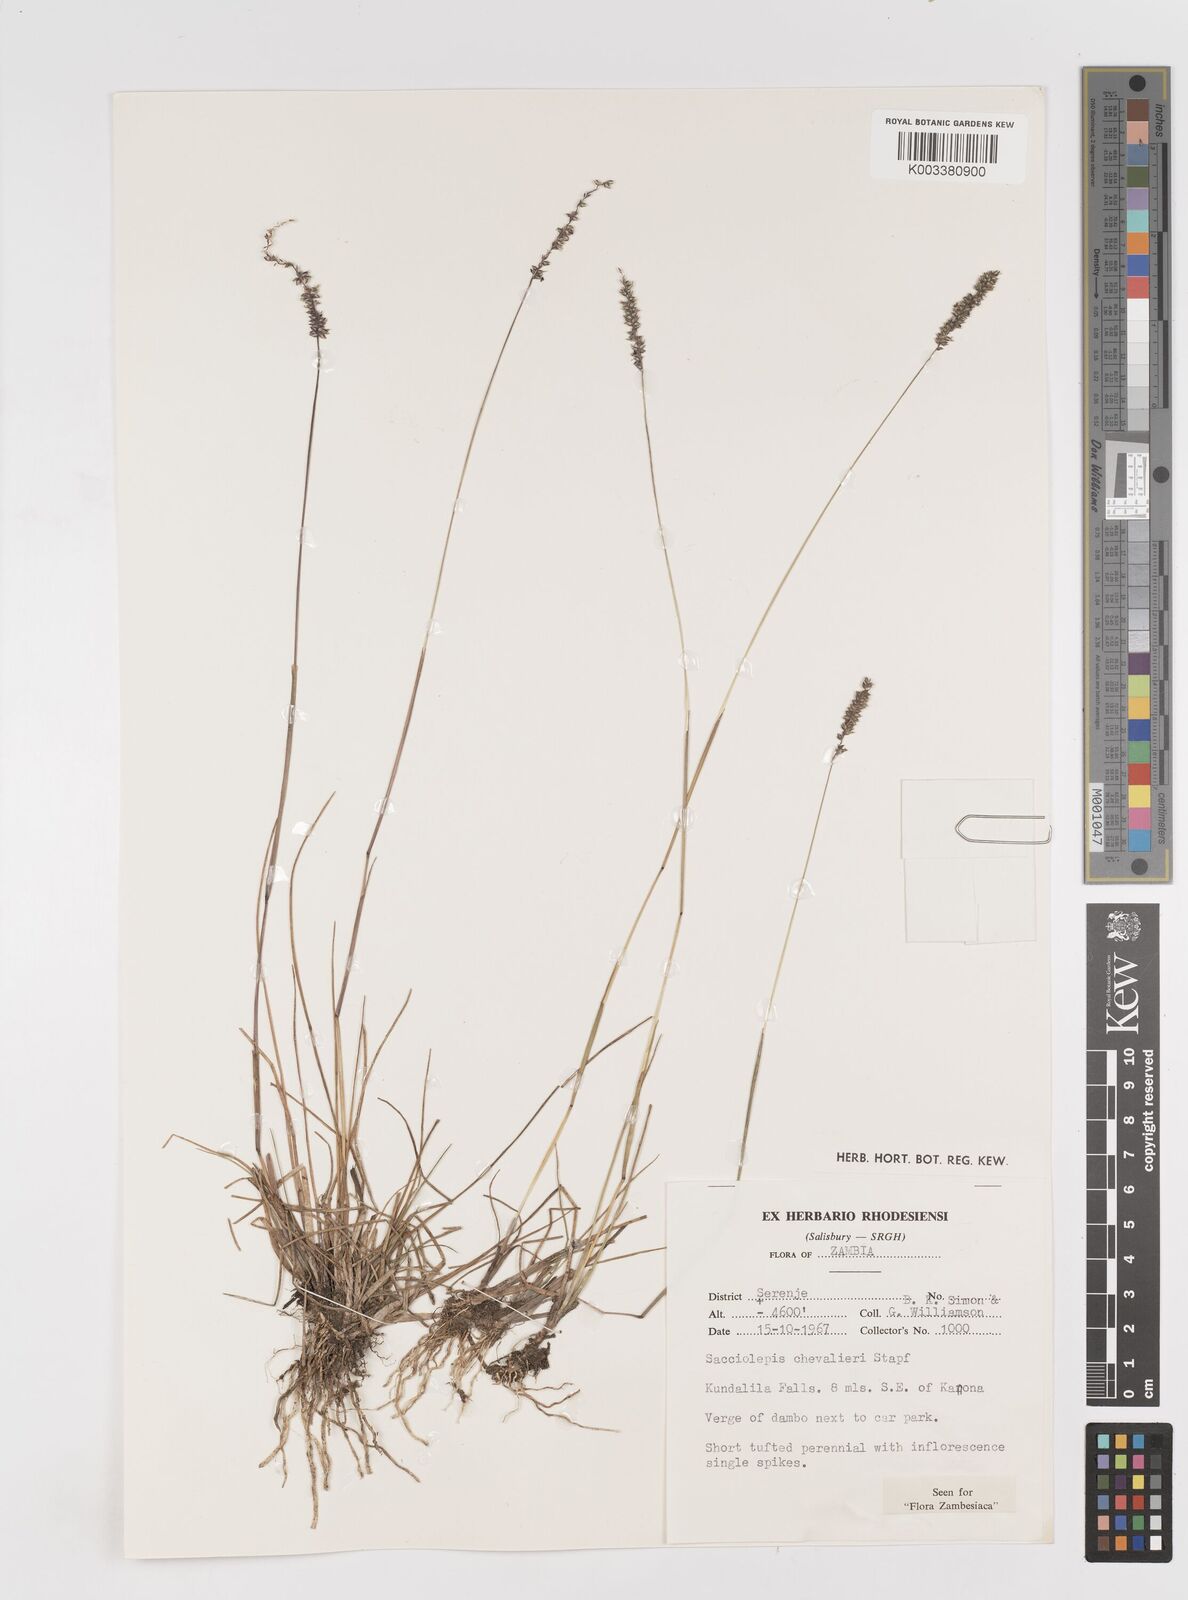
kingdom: Plantae
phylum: Tracheophyta
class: Liliopsida
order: Poales
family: Poaceae
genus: Sacciolepis
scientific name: Sacciolepis chevalieri
